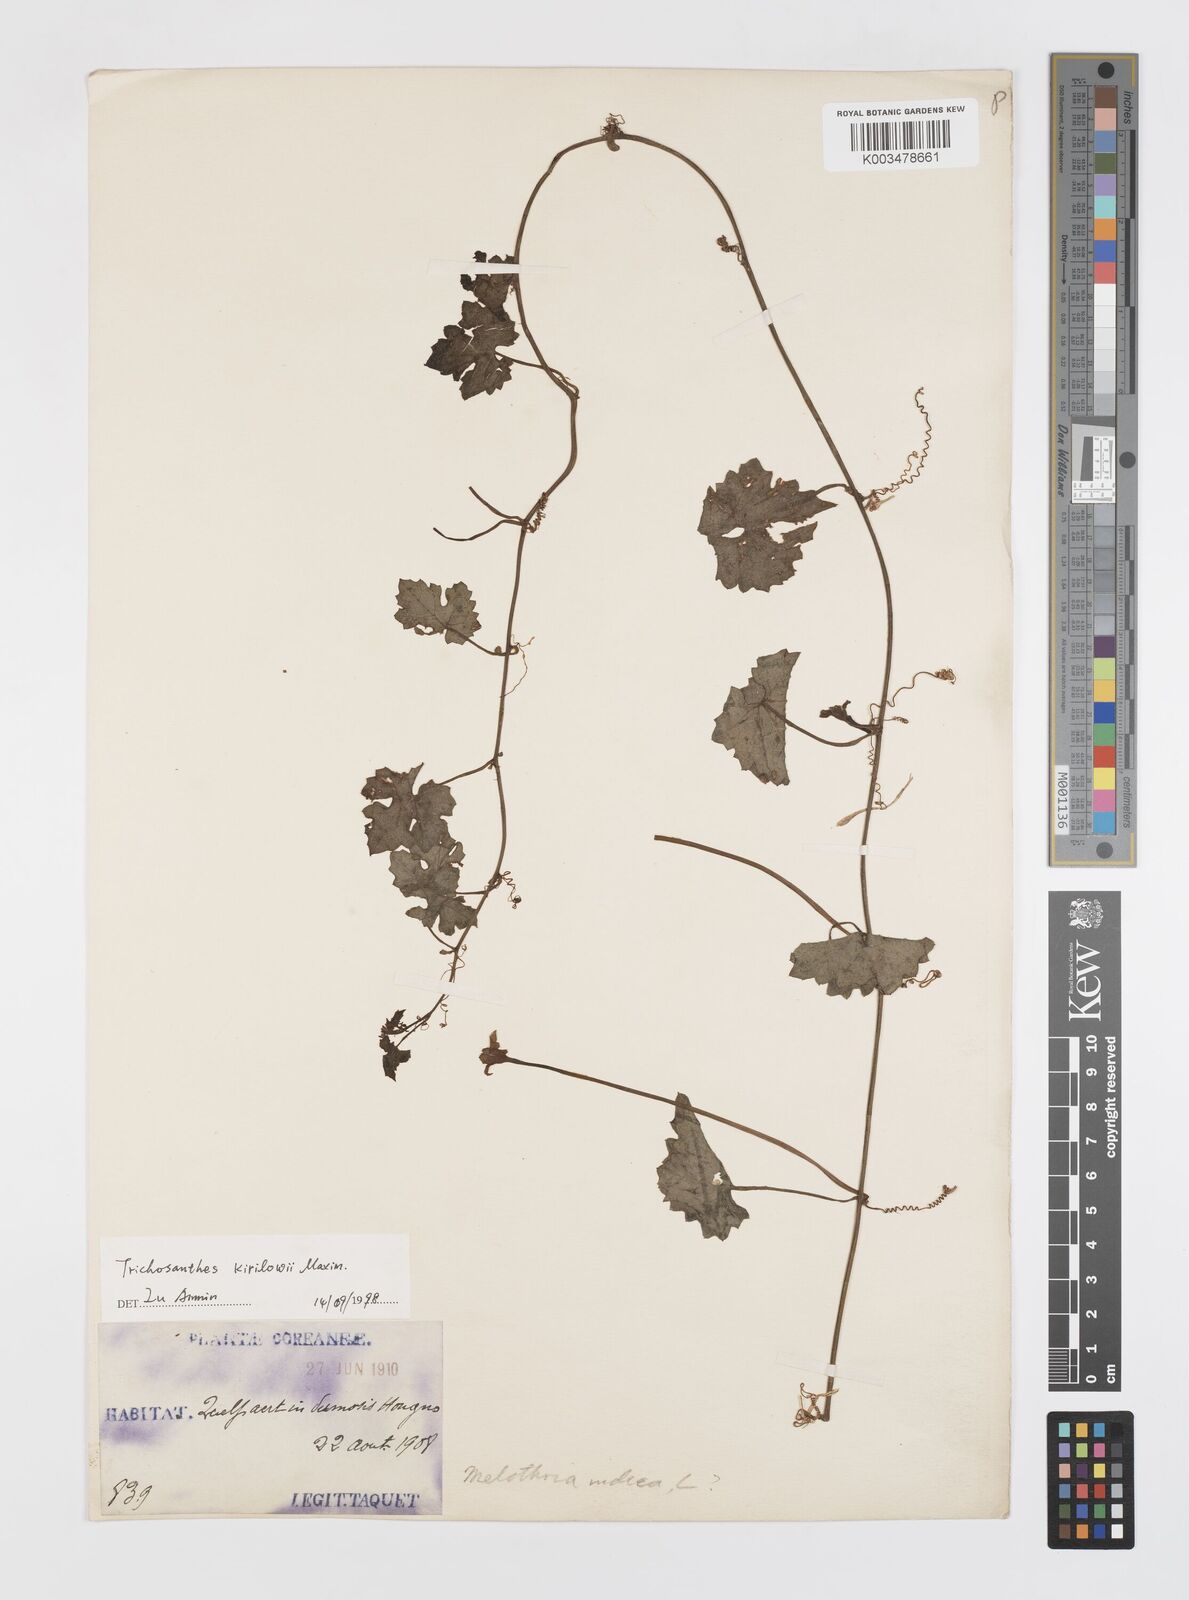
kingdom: Plantae
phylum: Tracheophyta
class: Magnoliopsida
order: Cucurbitales
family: Cucurbitaceae
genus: Trichosanthes
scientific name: Trichosanthes kirilowii
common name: Chinese-cucumber
